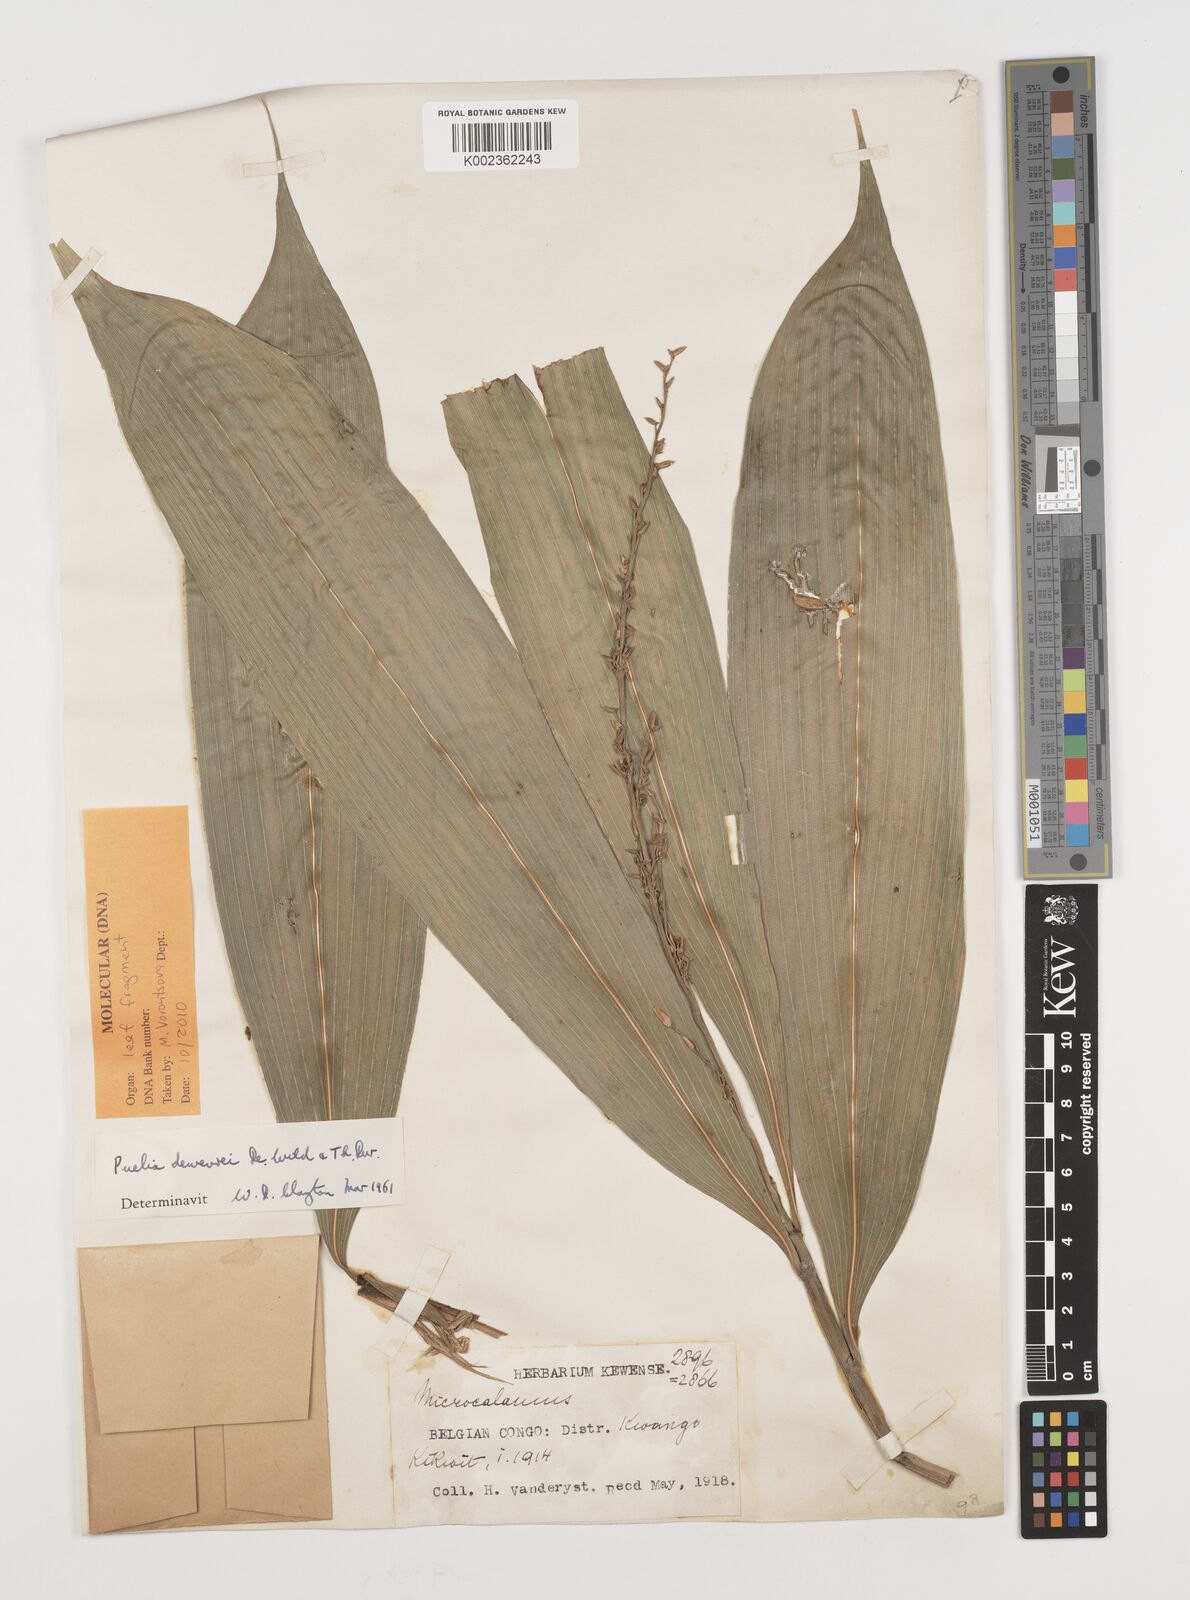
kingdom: Plantae
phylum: Tracheophyta
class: Liliopsida
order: Poales
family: Poaceae
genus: Puelia
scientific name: Puelia dewevrei
